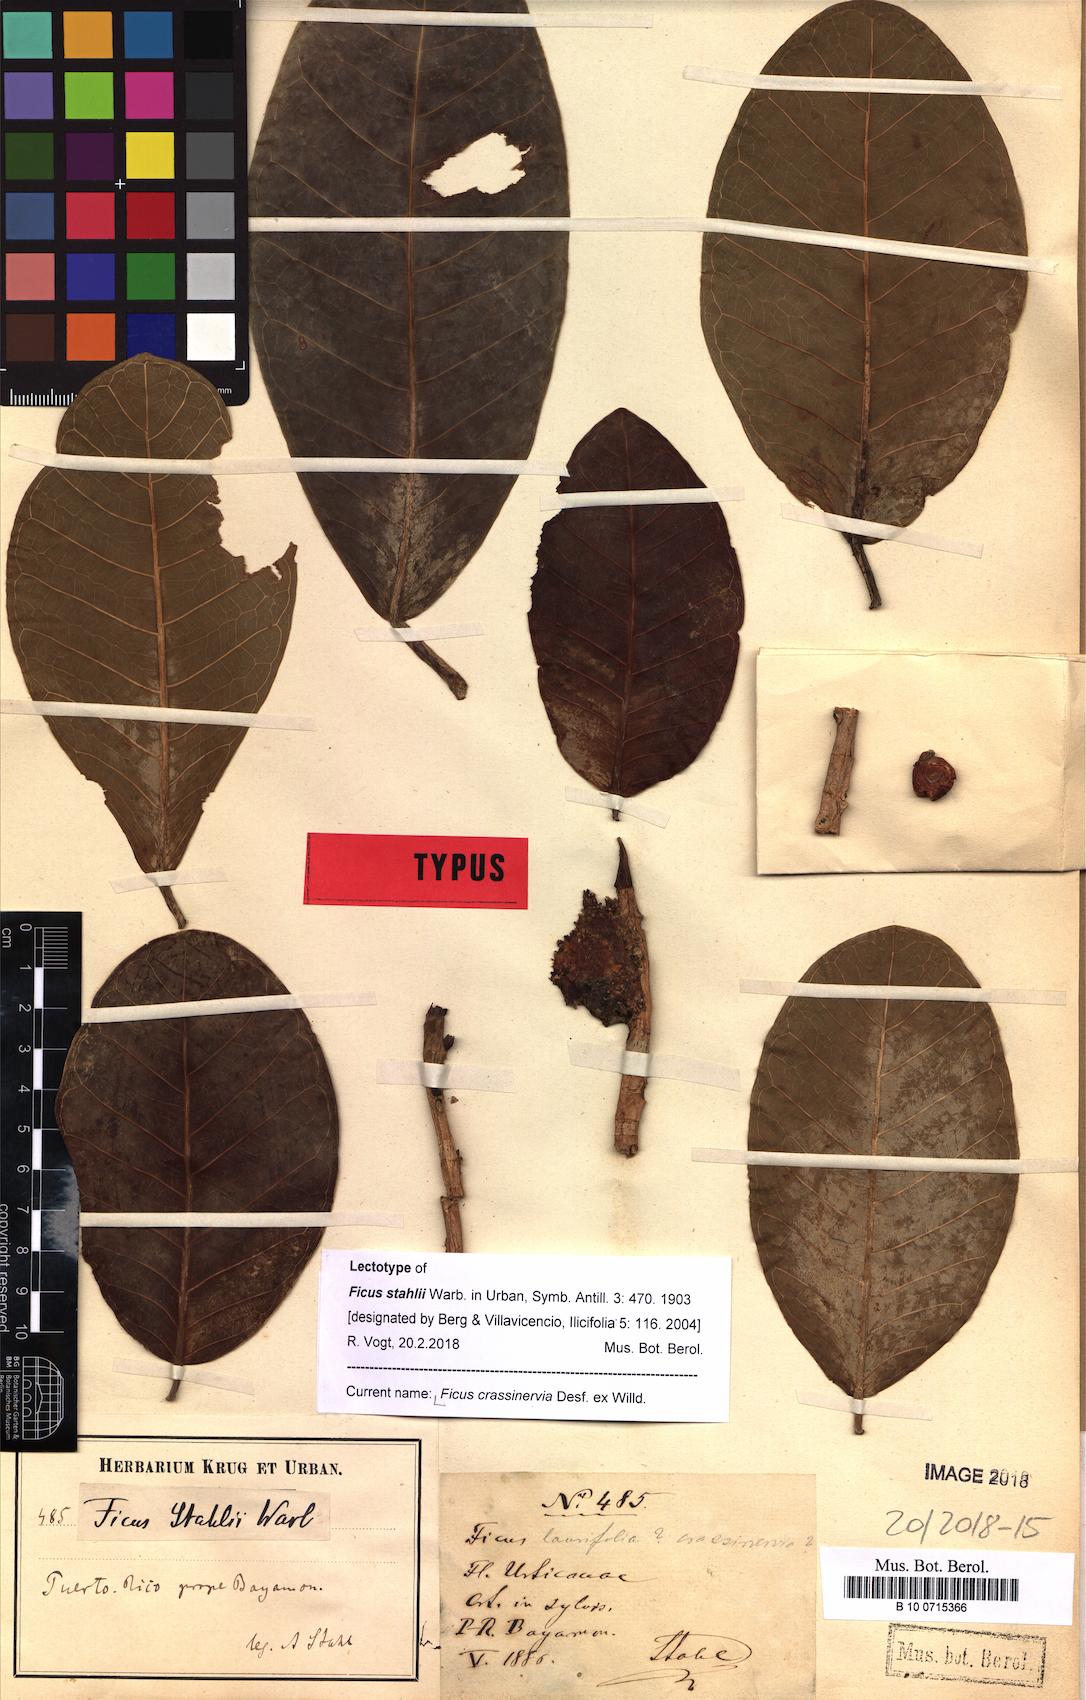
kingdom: Plantae
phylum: Tracheophyta
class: Magnoliopsida
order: Rosales
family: Moraceae
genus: Ficus
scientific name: Ficus crassinervia
